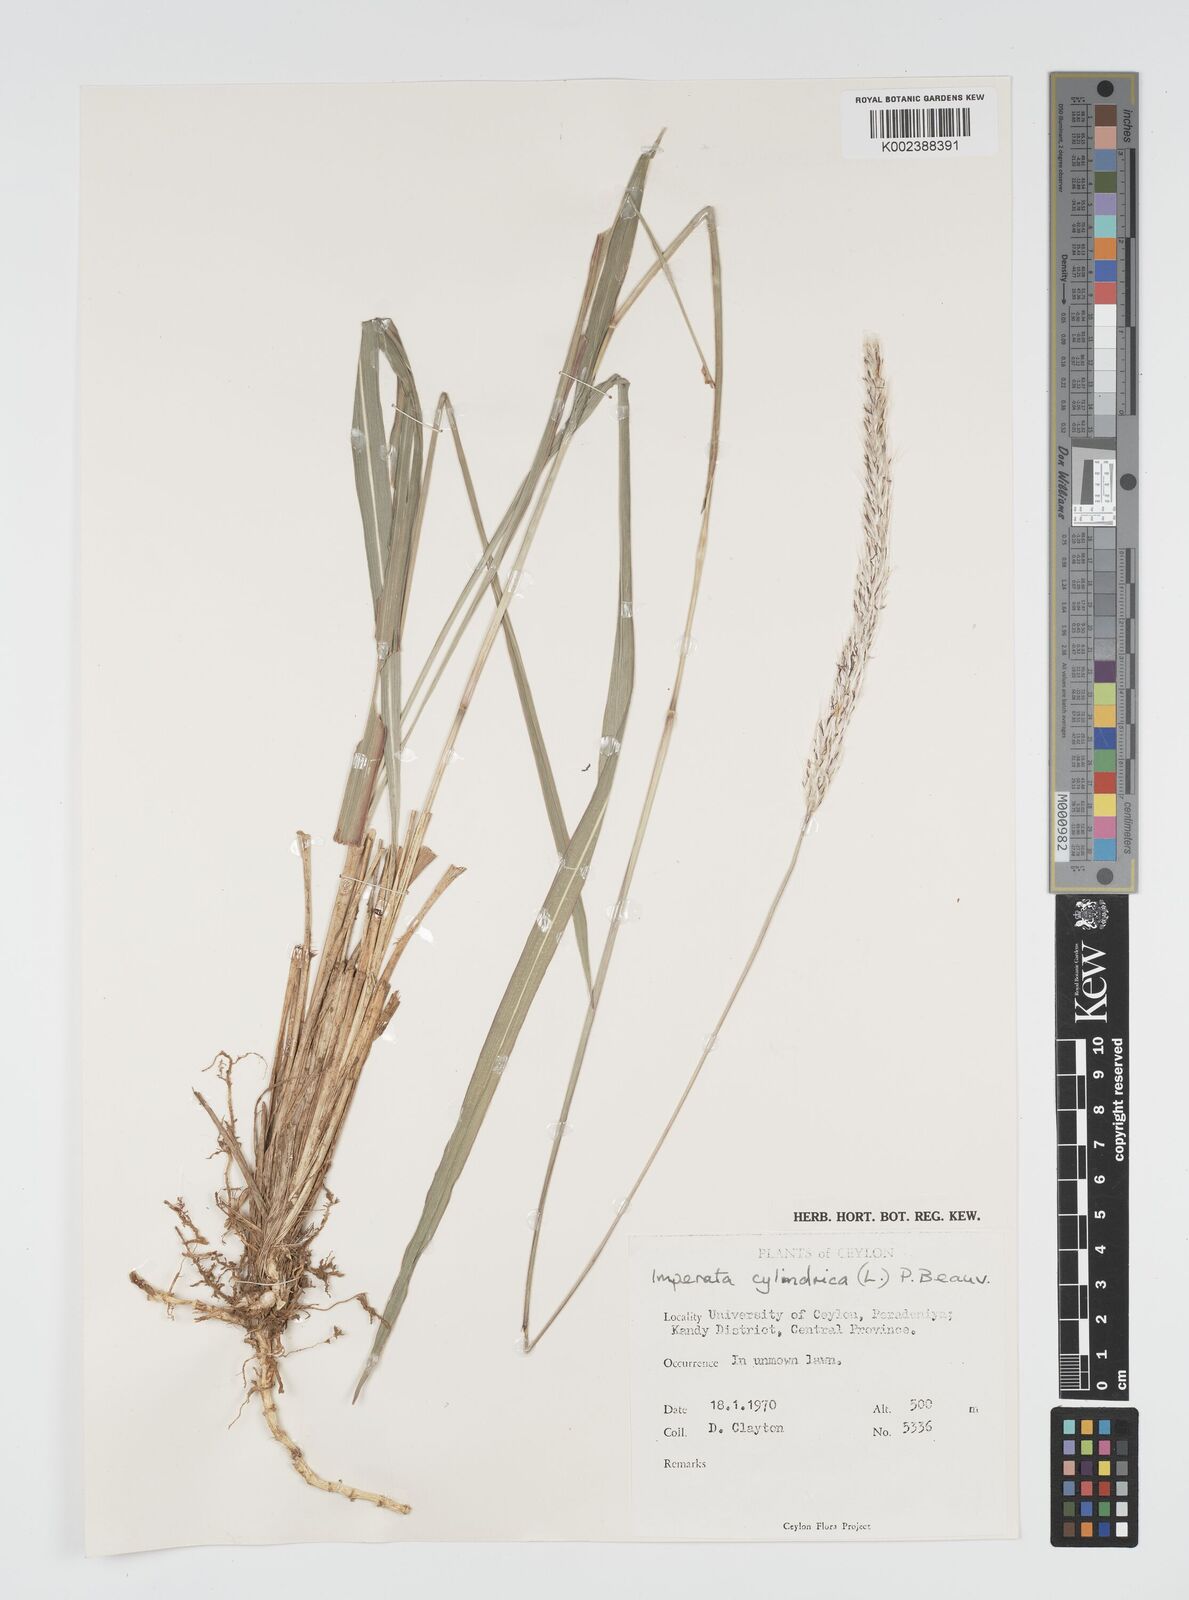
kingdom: Plantae
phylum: Tracheophyta
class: Liliopsida
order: Poales
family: Poaceae
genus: Imperata
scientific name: Imperata cylindrica
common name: Cogongrass
